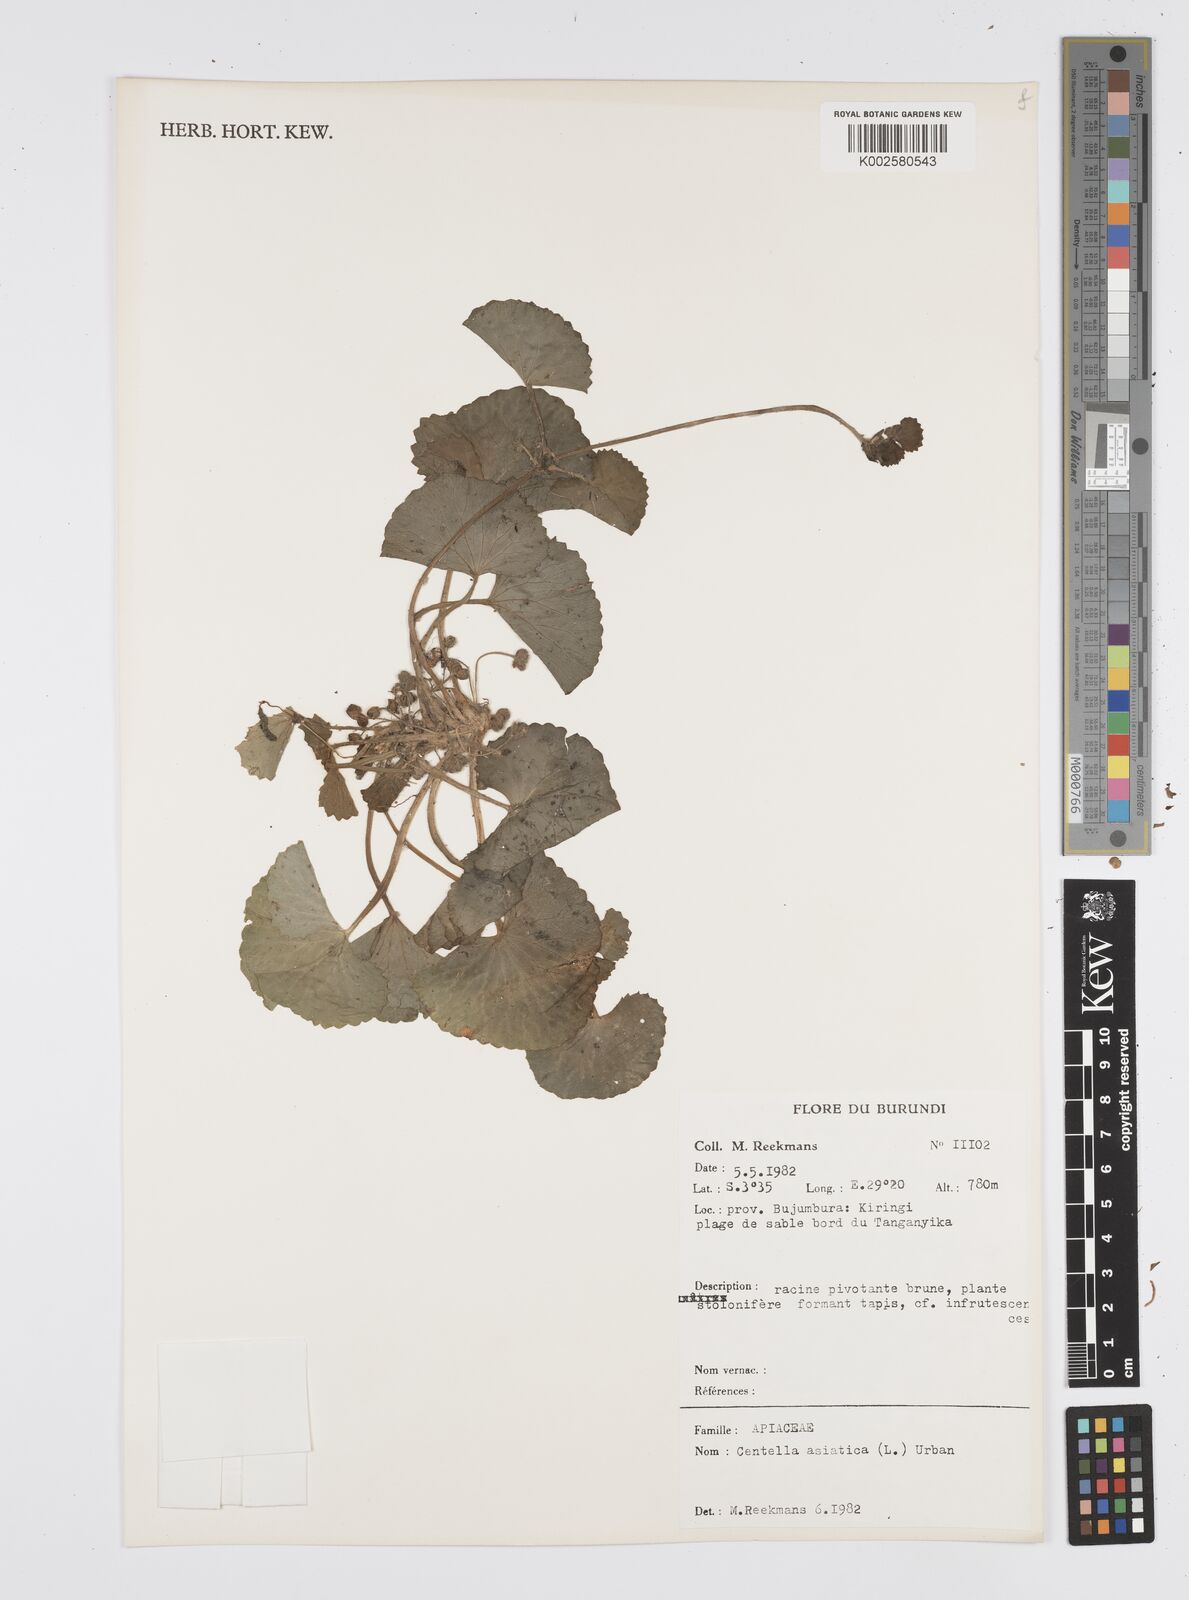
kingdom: Plantae
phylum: Tracheophyta
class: Magnoliopsida
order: Apiales
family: Apiaceae
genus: Centella
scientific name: Centella asiatica
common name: Spadeleaf
